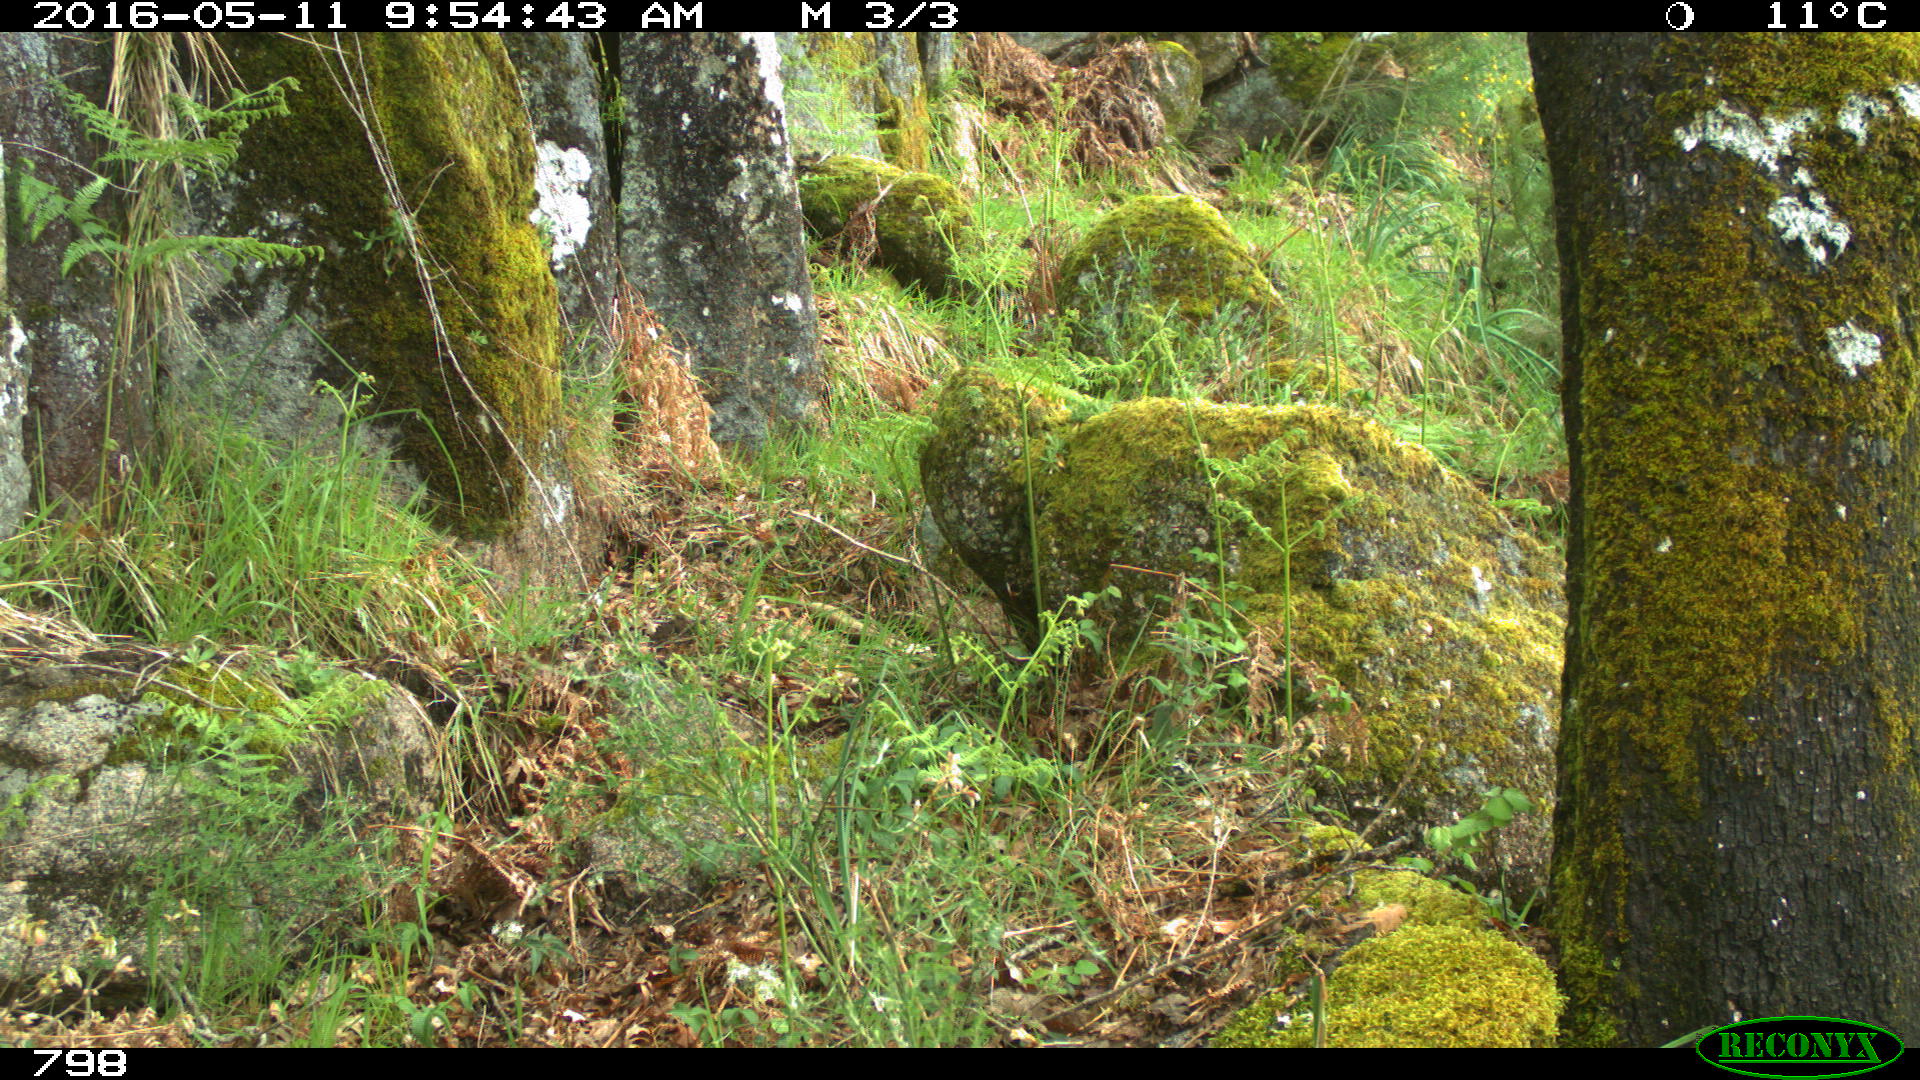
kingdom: Animalia
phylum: Chordata
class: Mammalia
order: Artiodactyla
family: Suidae
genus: Sus
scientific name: Sus scrofa
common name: Wild boar
